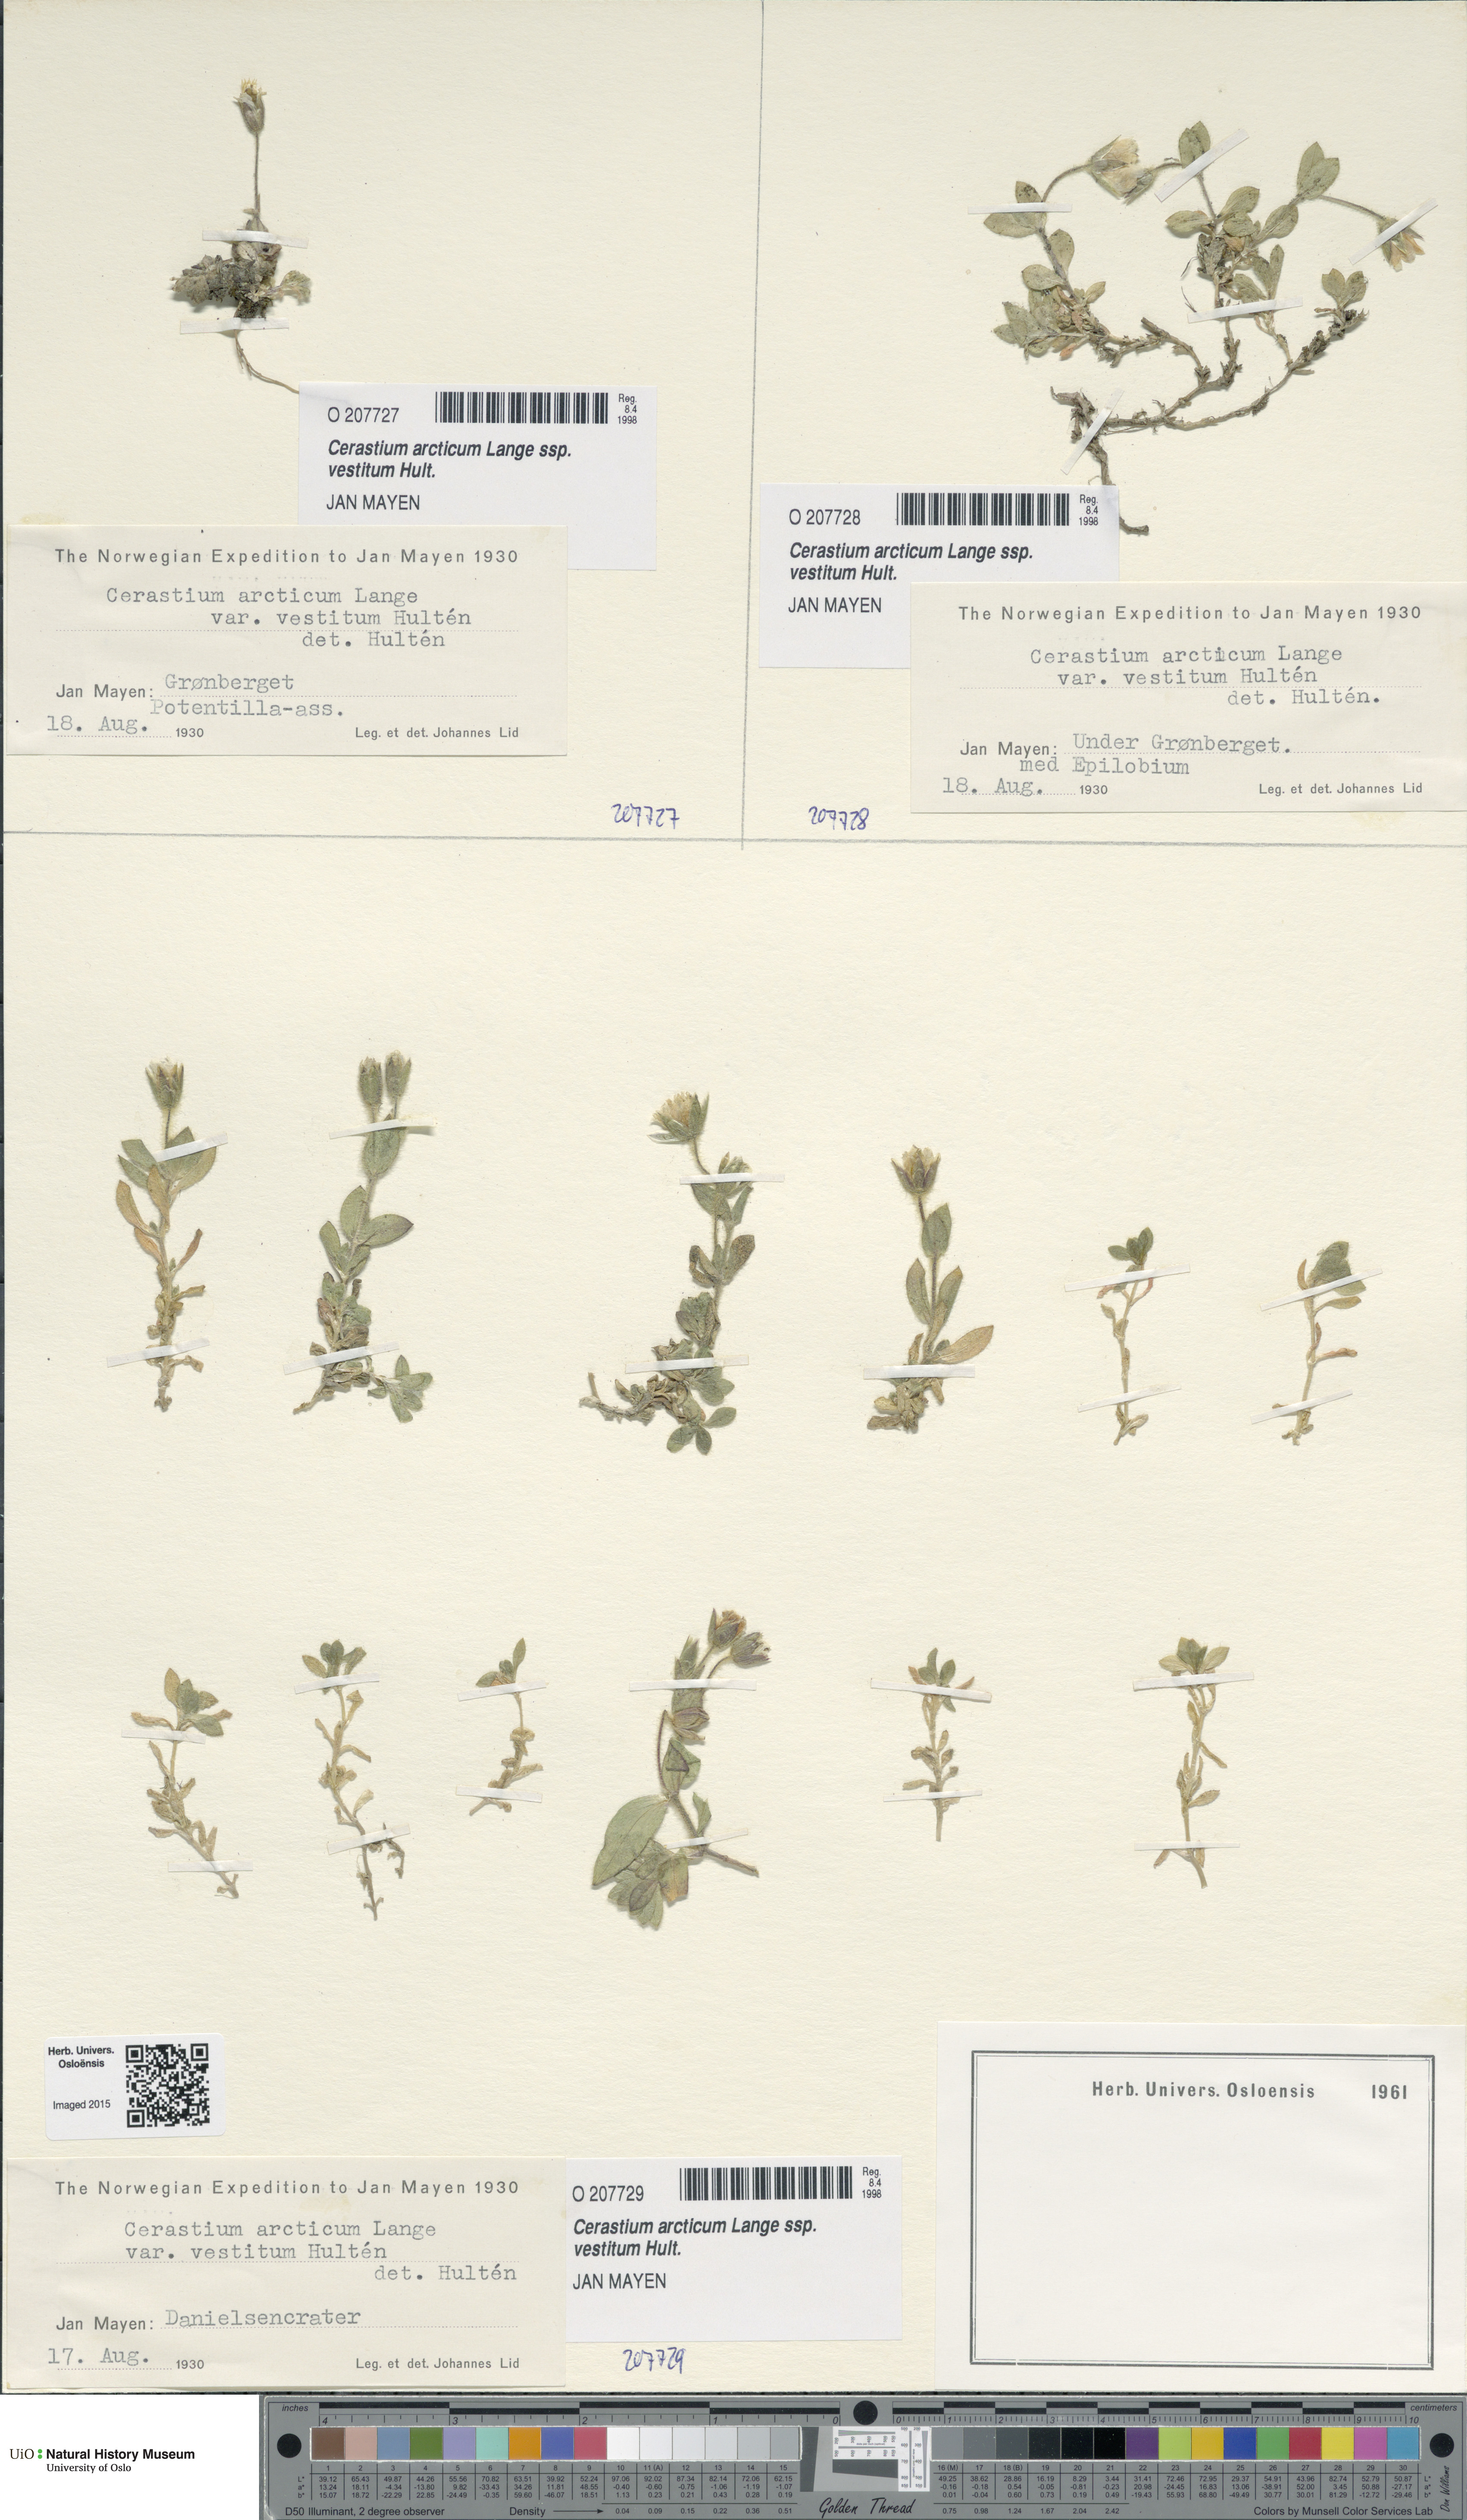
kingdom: Plantae
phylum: Tracheophyta
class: Magnoliopsida
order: Caryophyllales
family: Caryophyllaceae
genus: Cerastium
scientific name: Cerastium arcticum
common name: Arctic mouse-ear
